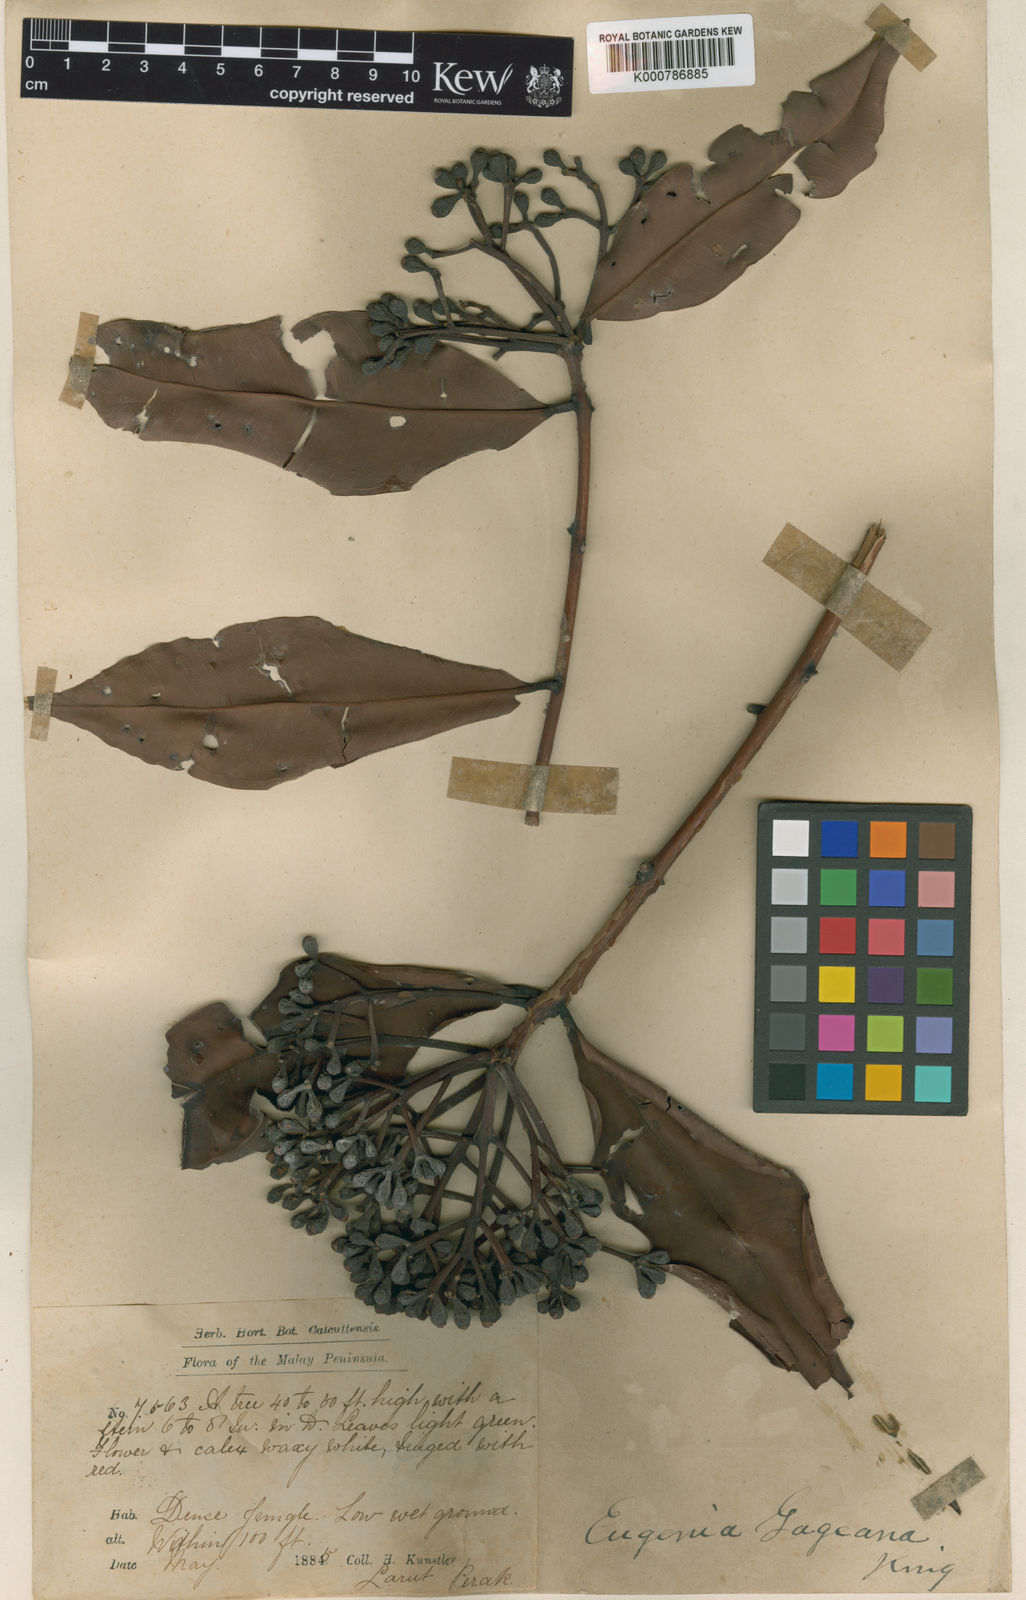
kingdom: Plantae
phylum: Tracheophyta
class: Magnoliopsida
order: Myrtales
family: Myrtaceae
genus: Syzygium
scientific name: Syzygium gageanum
